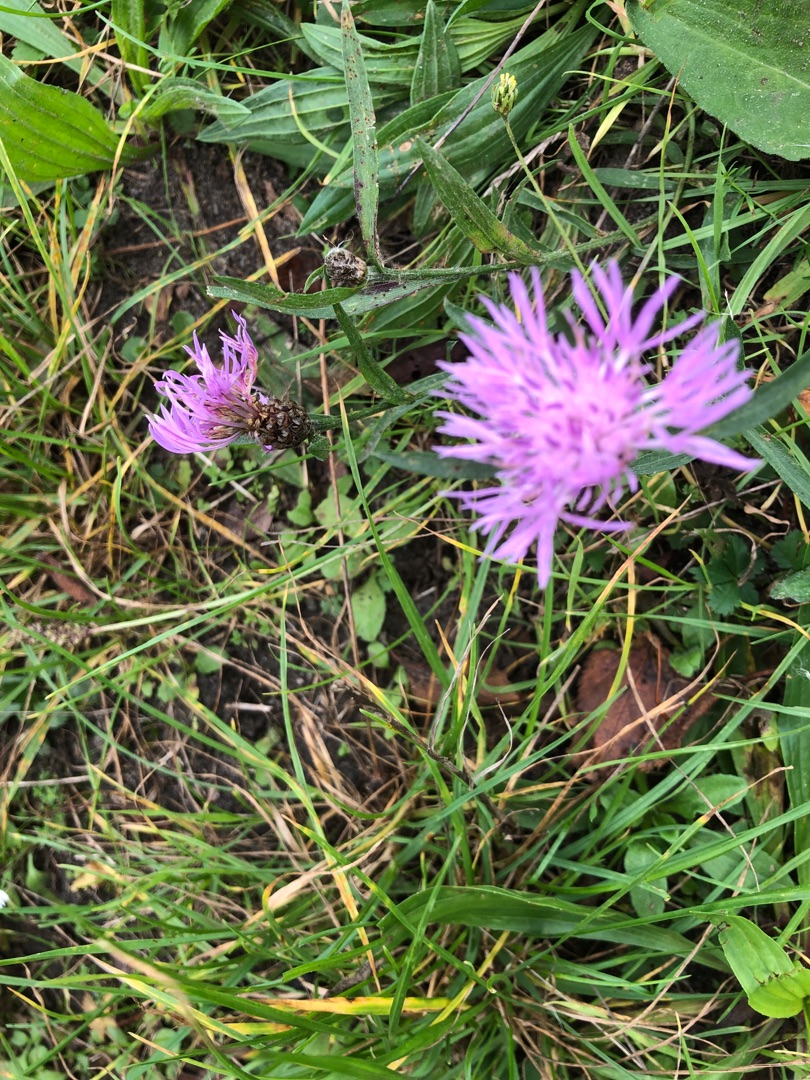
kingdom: Plantae
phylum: Tracheophyta
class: Magnoliopsida
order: Asterales
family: Asteraceae
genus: Centaurea
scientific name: Centaurea jacea
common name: Almindelig knopurt
